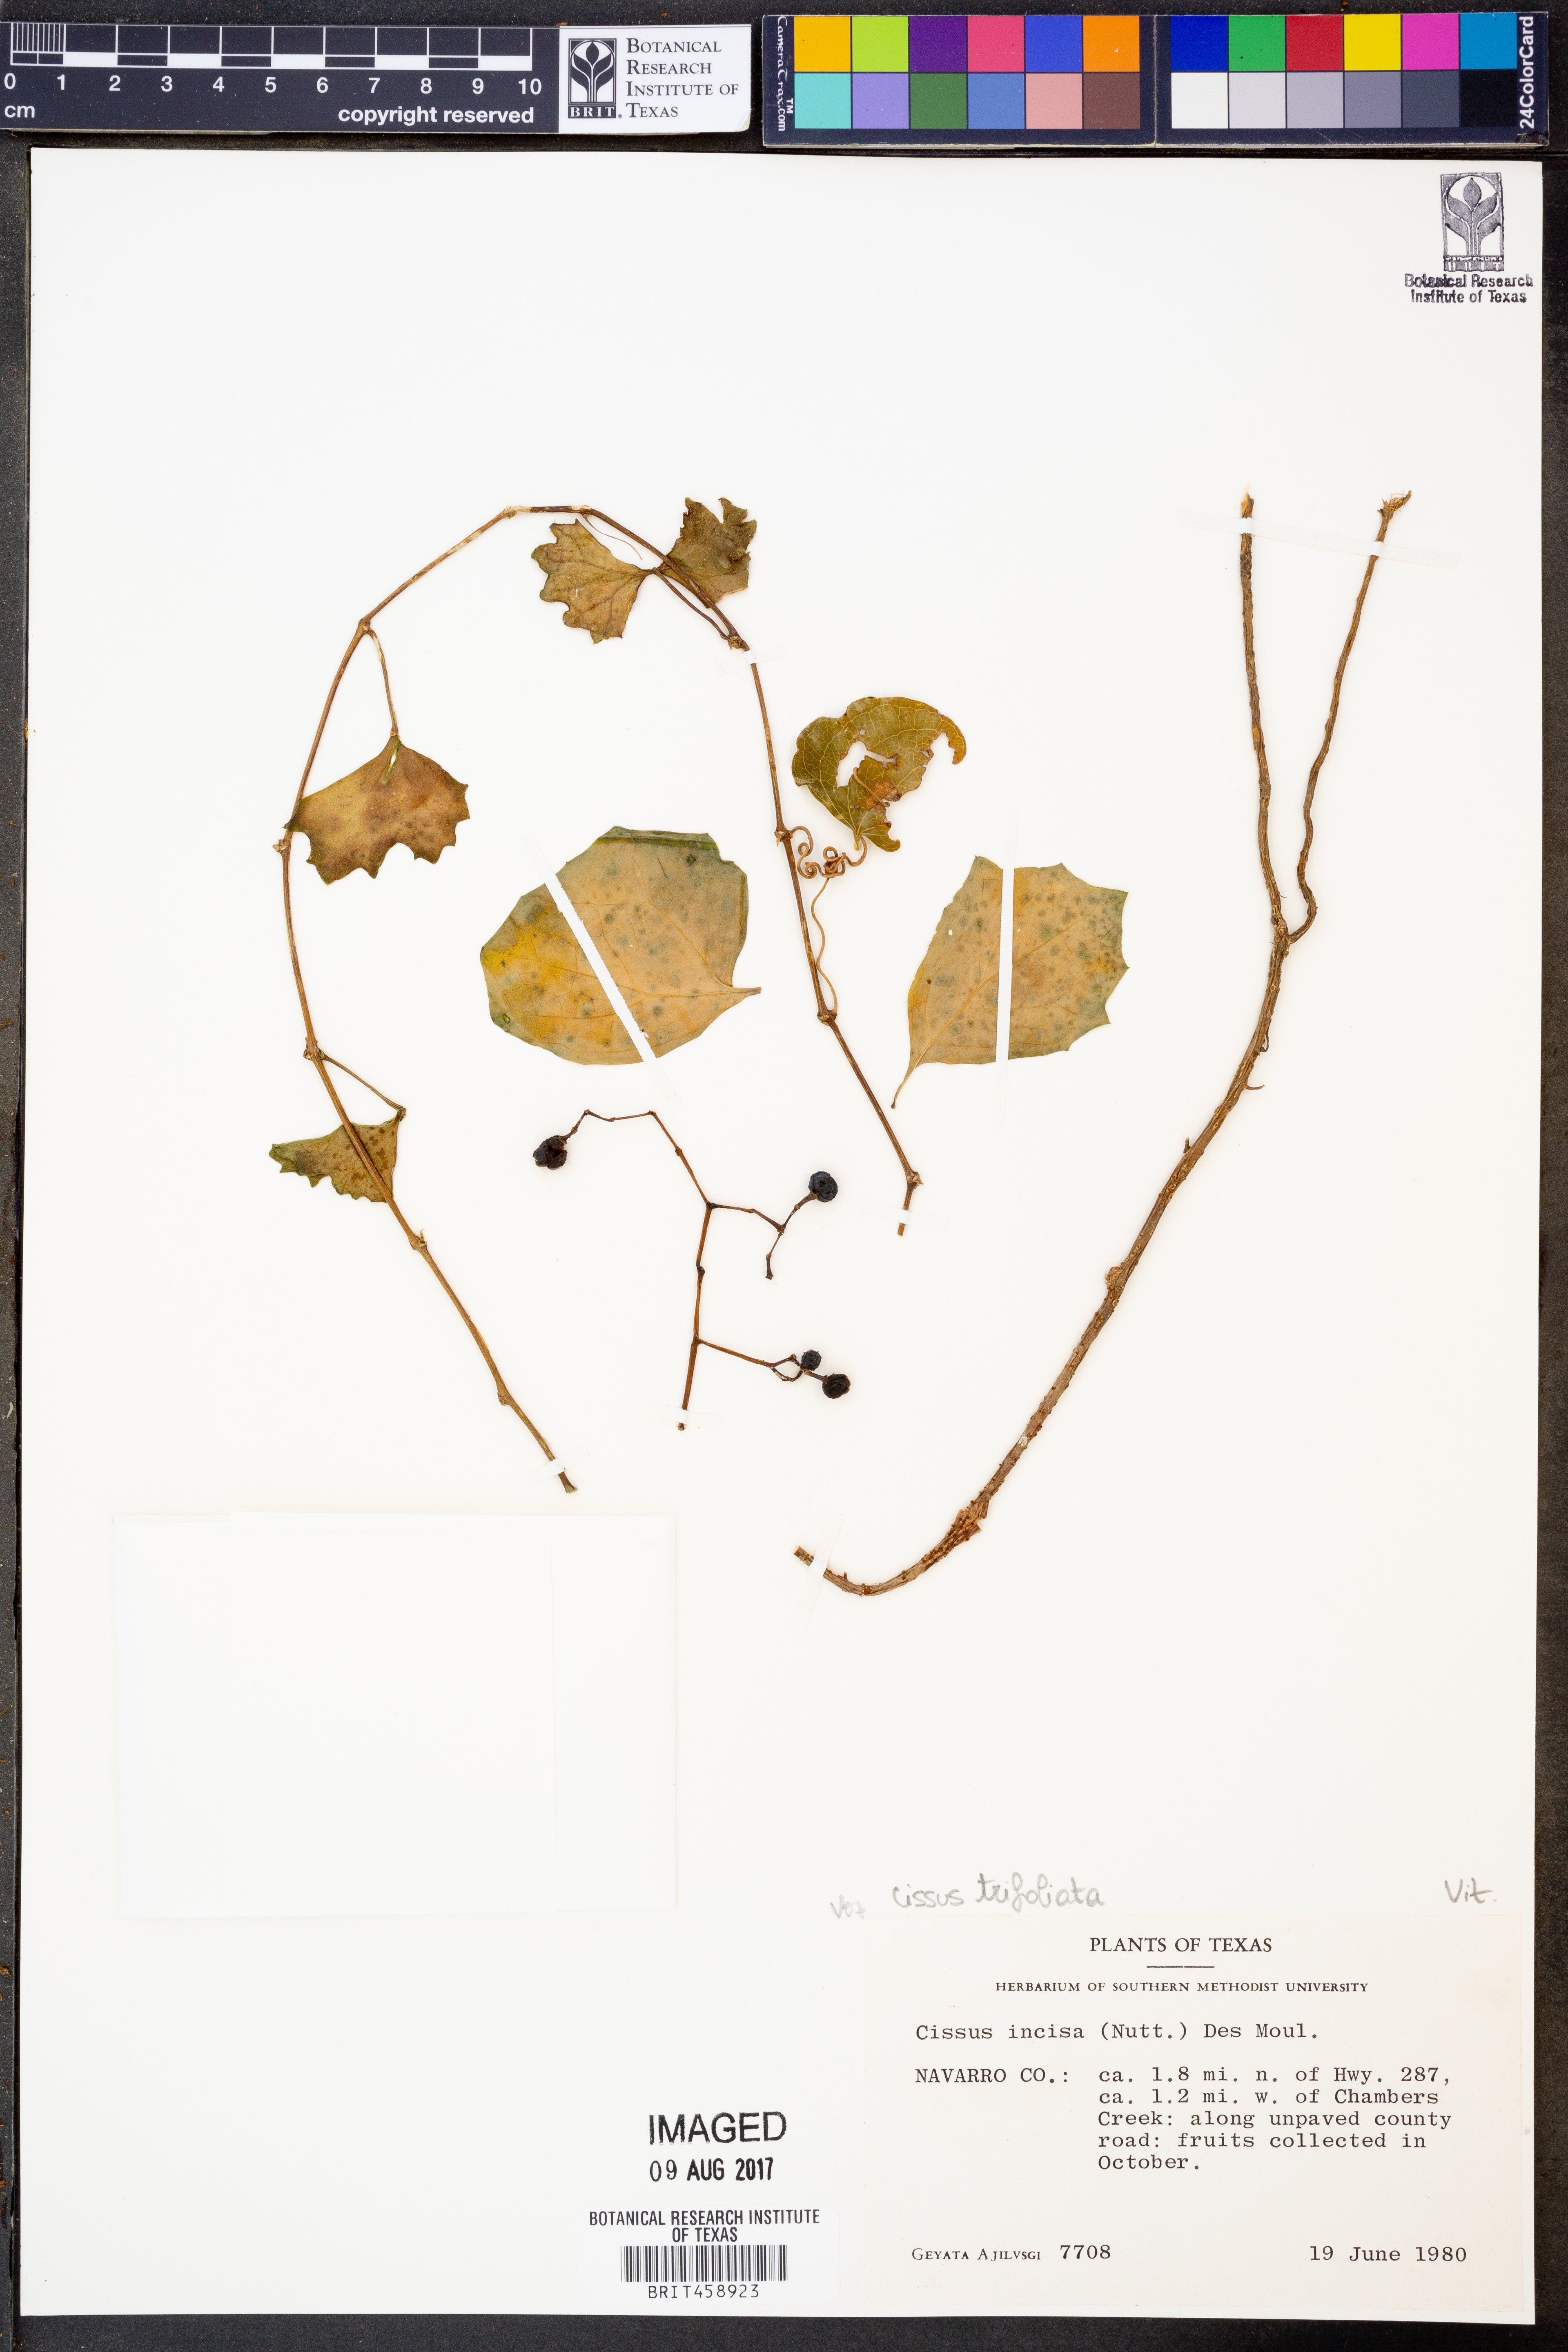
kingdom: Plantae
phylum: Tracheophyta
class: Magnoliopsida
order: Vitales
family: Vitaceae
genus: Cissus
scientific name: Cissus trifoliata
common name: Vine-sorrel
